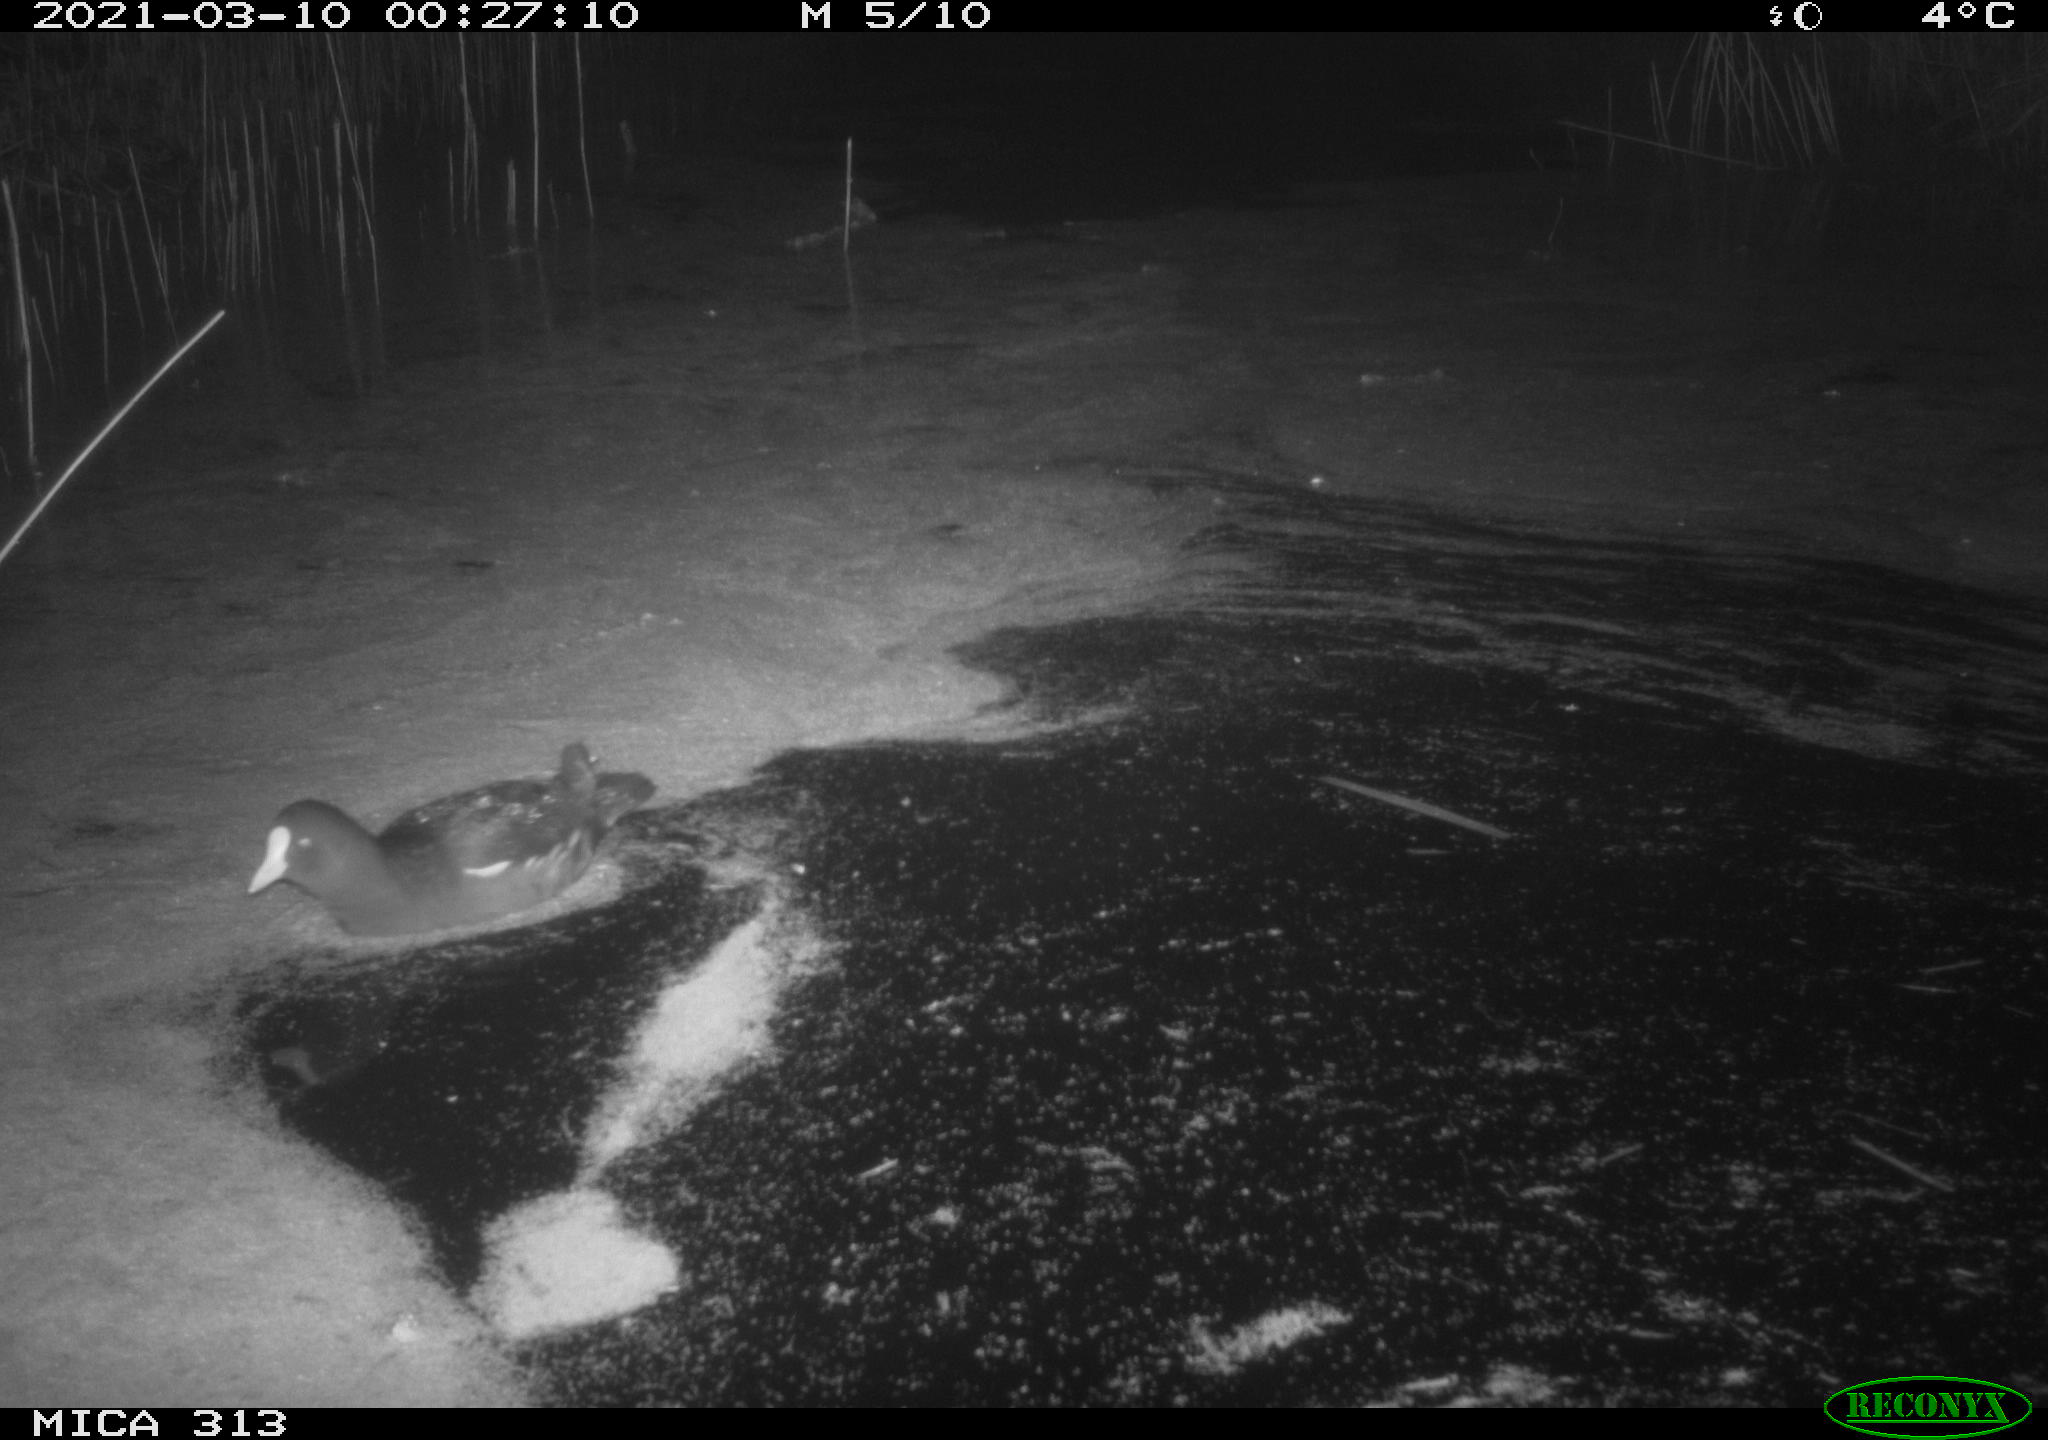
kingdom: Animalia
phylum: Chordata
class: Aves
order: Gruiformes
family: Rallidae
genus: Gallinula
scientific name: Gallinula chloropus
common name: Common moorhen
